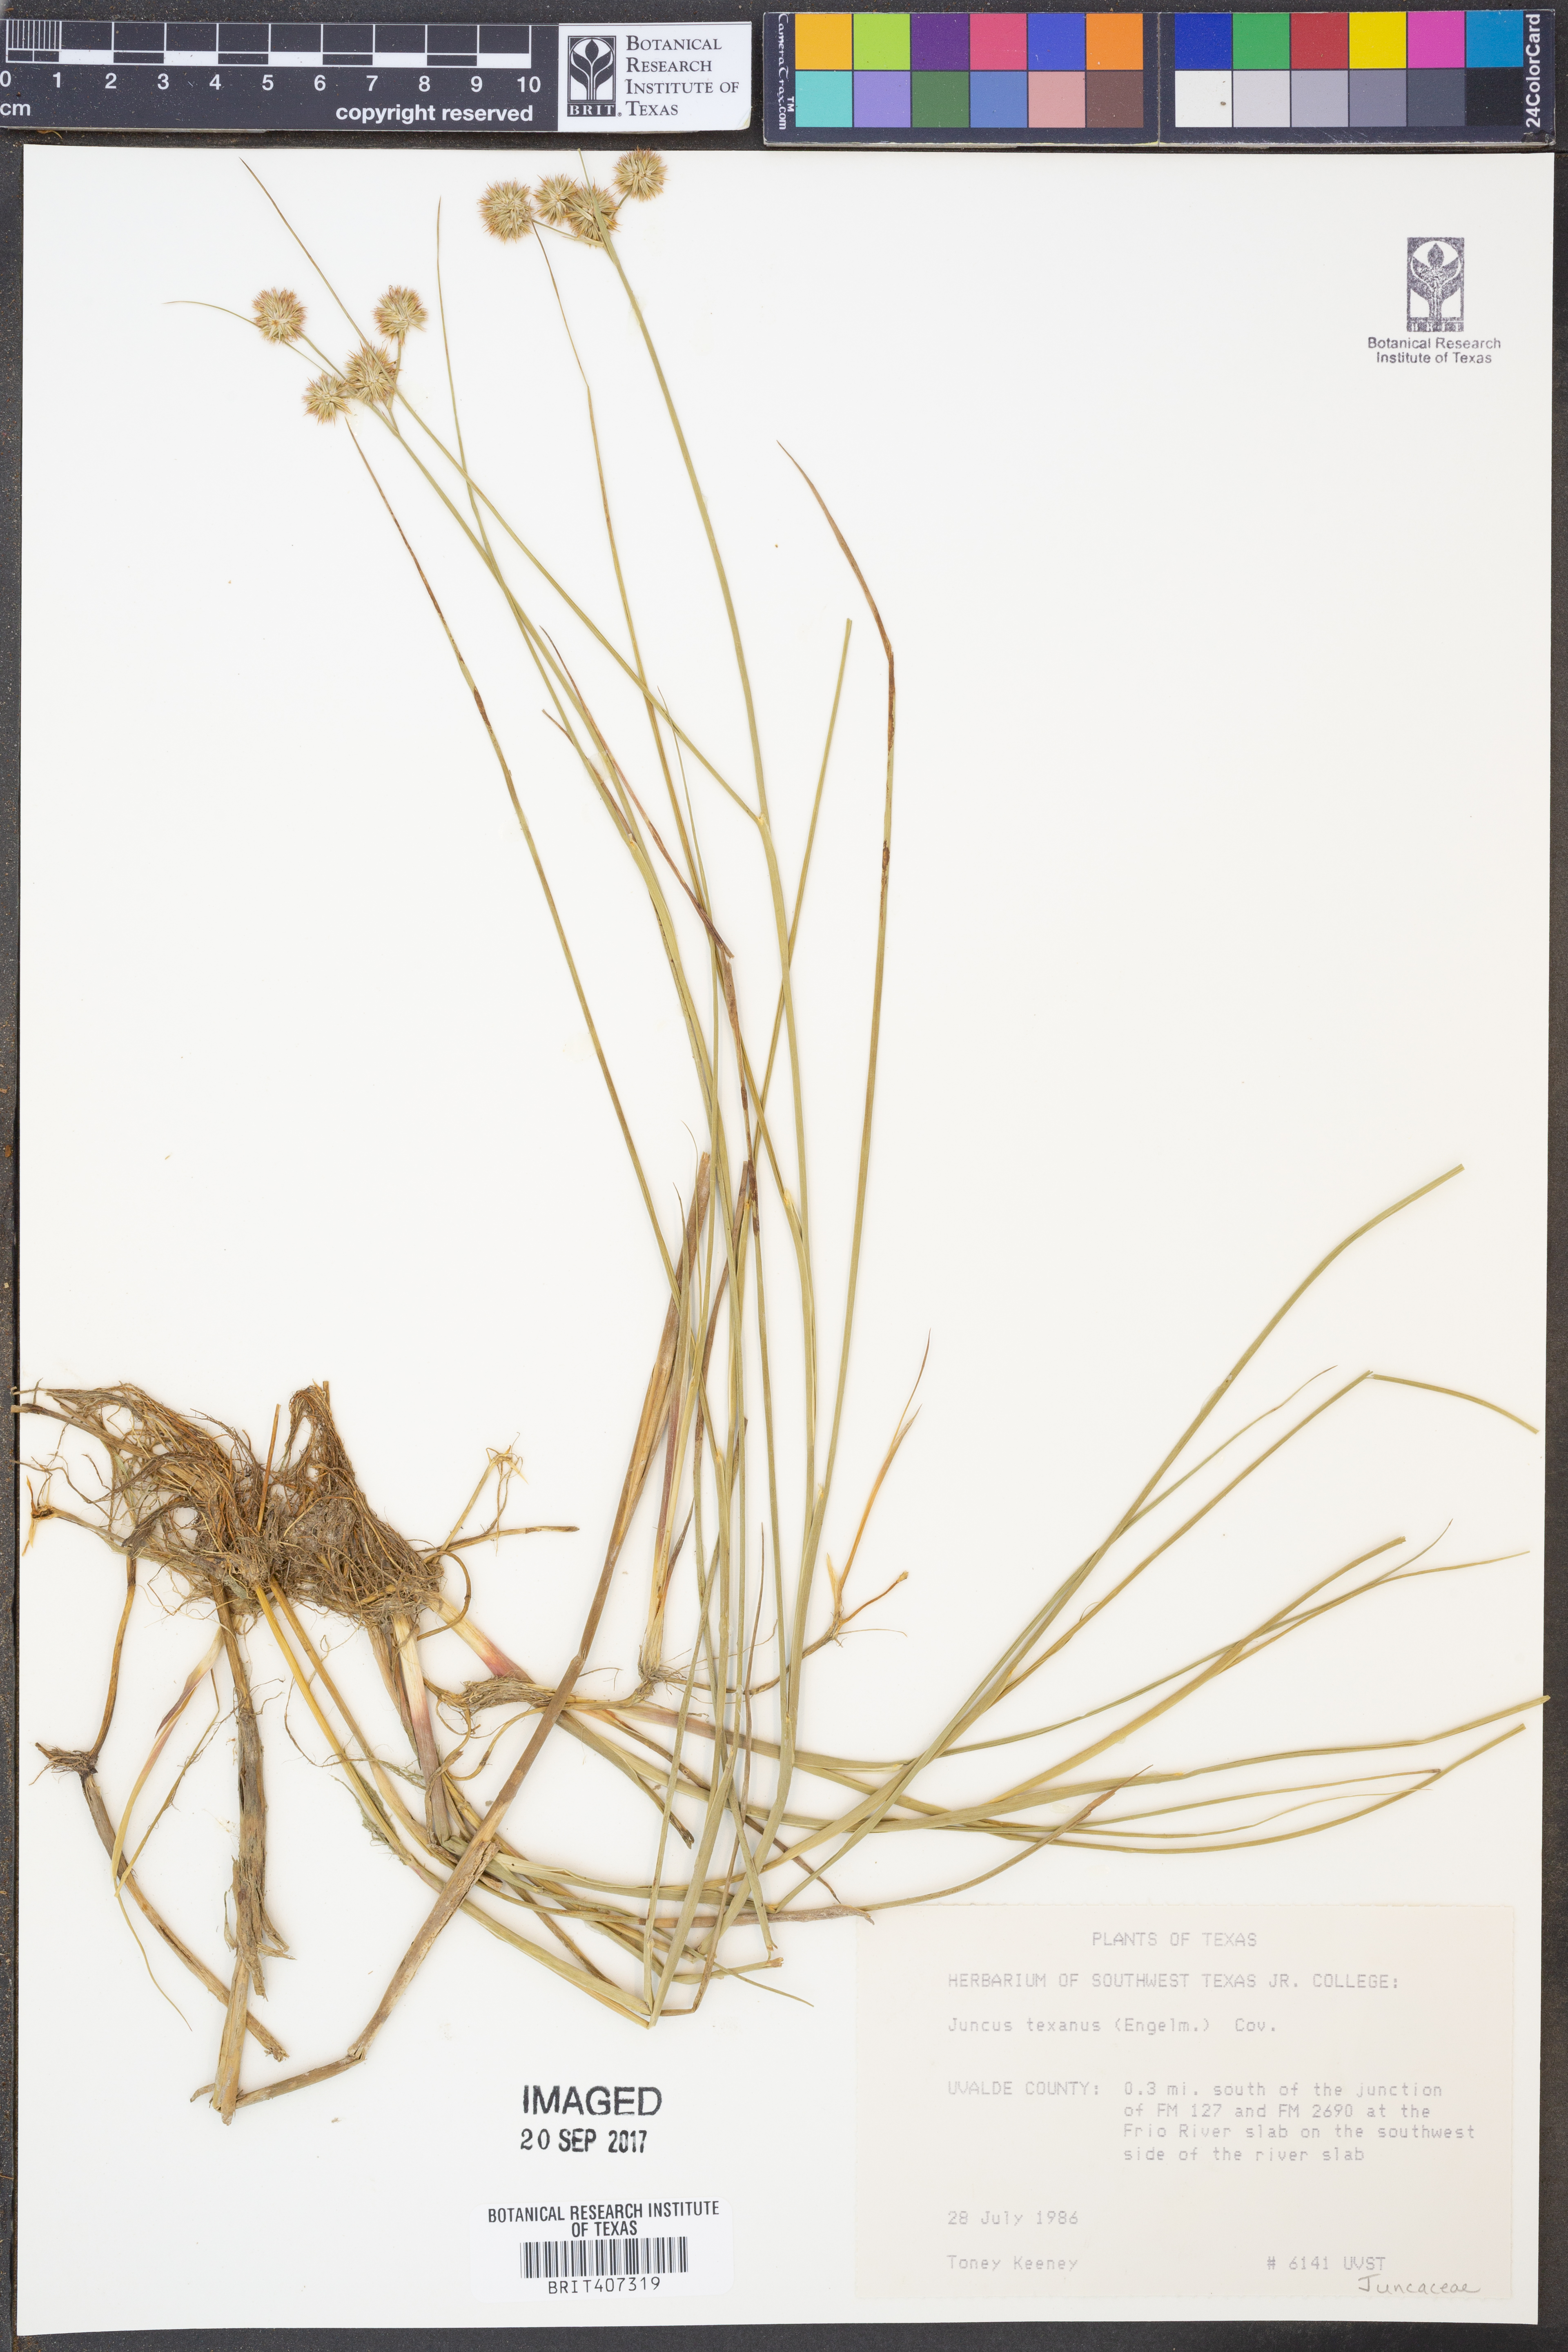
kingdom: Plantae
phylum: Tracheophyta
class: Liliopsida
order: Poales
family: Juncaceae
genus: Juncus
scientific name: Juncus texanus
